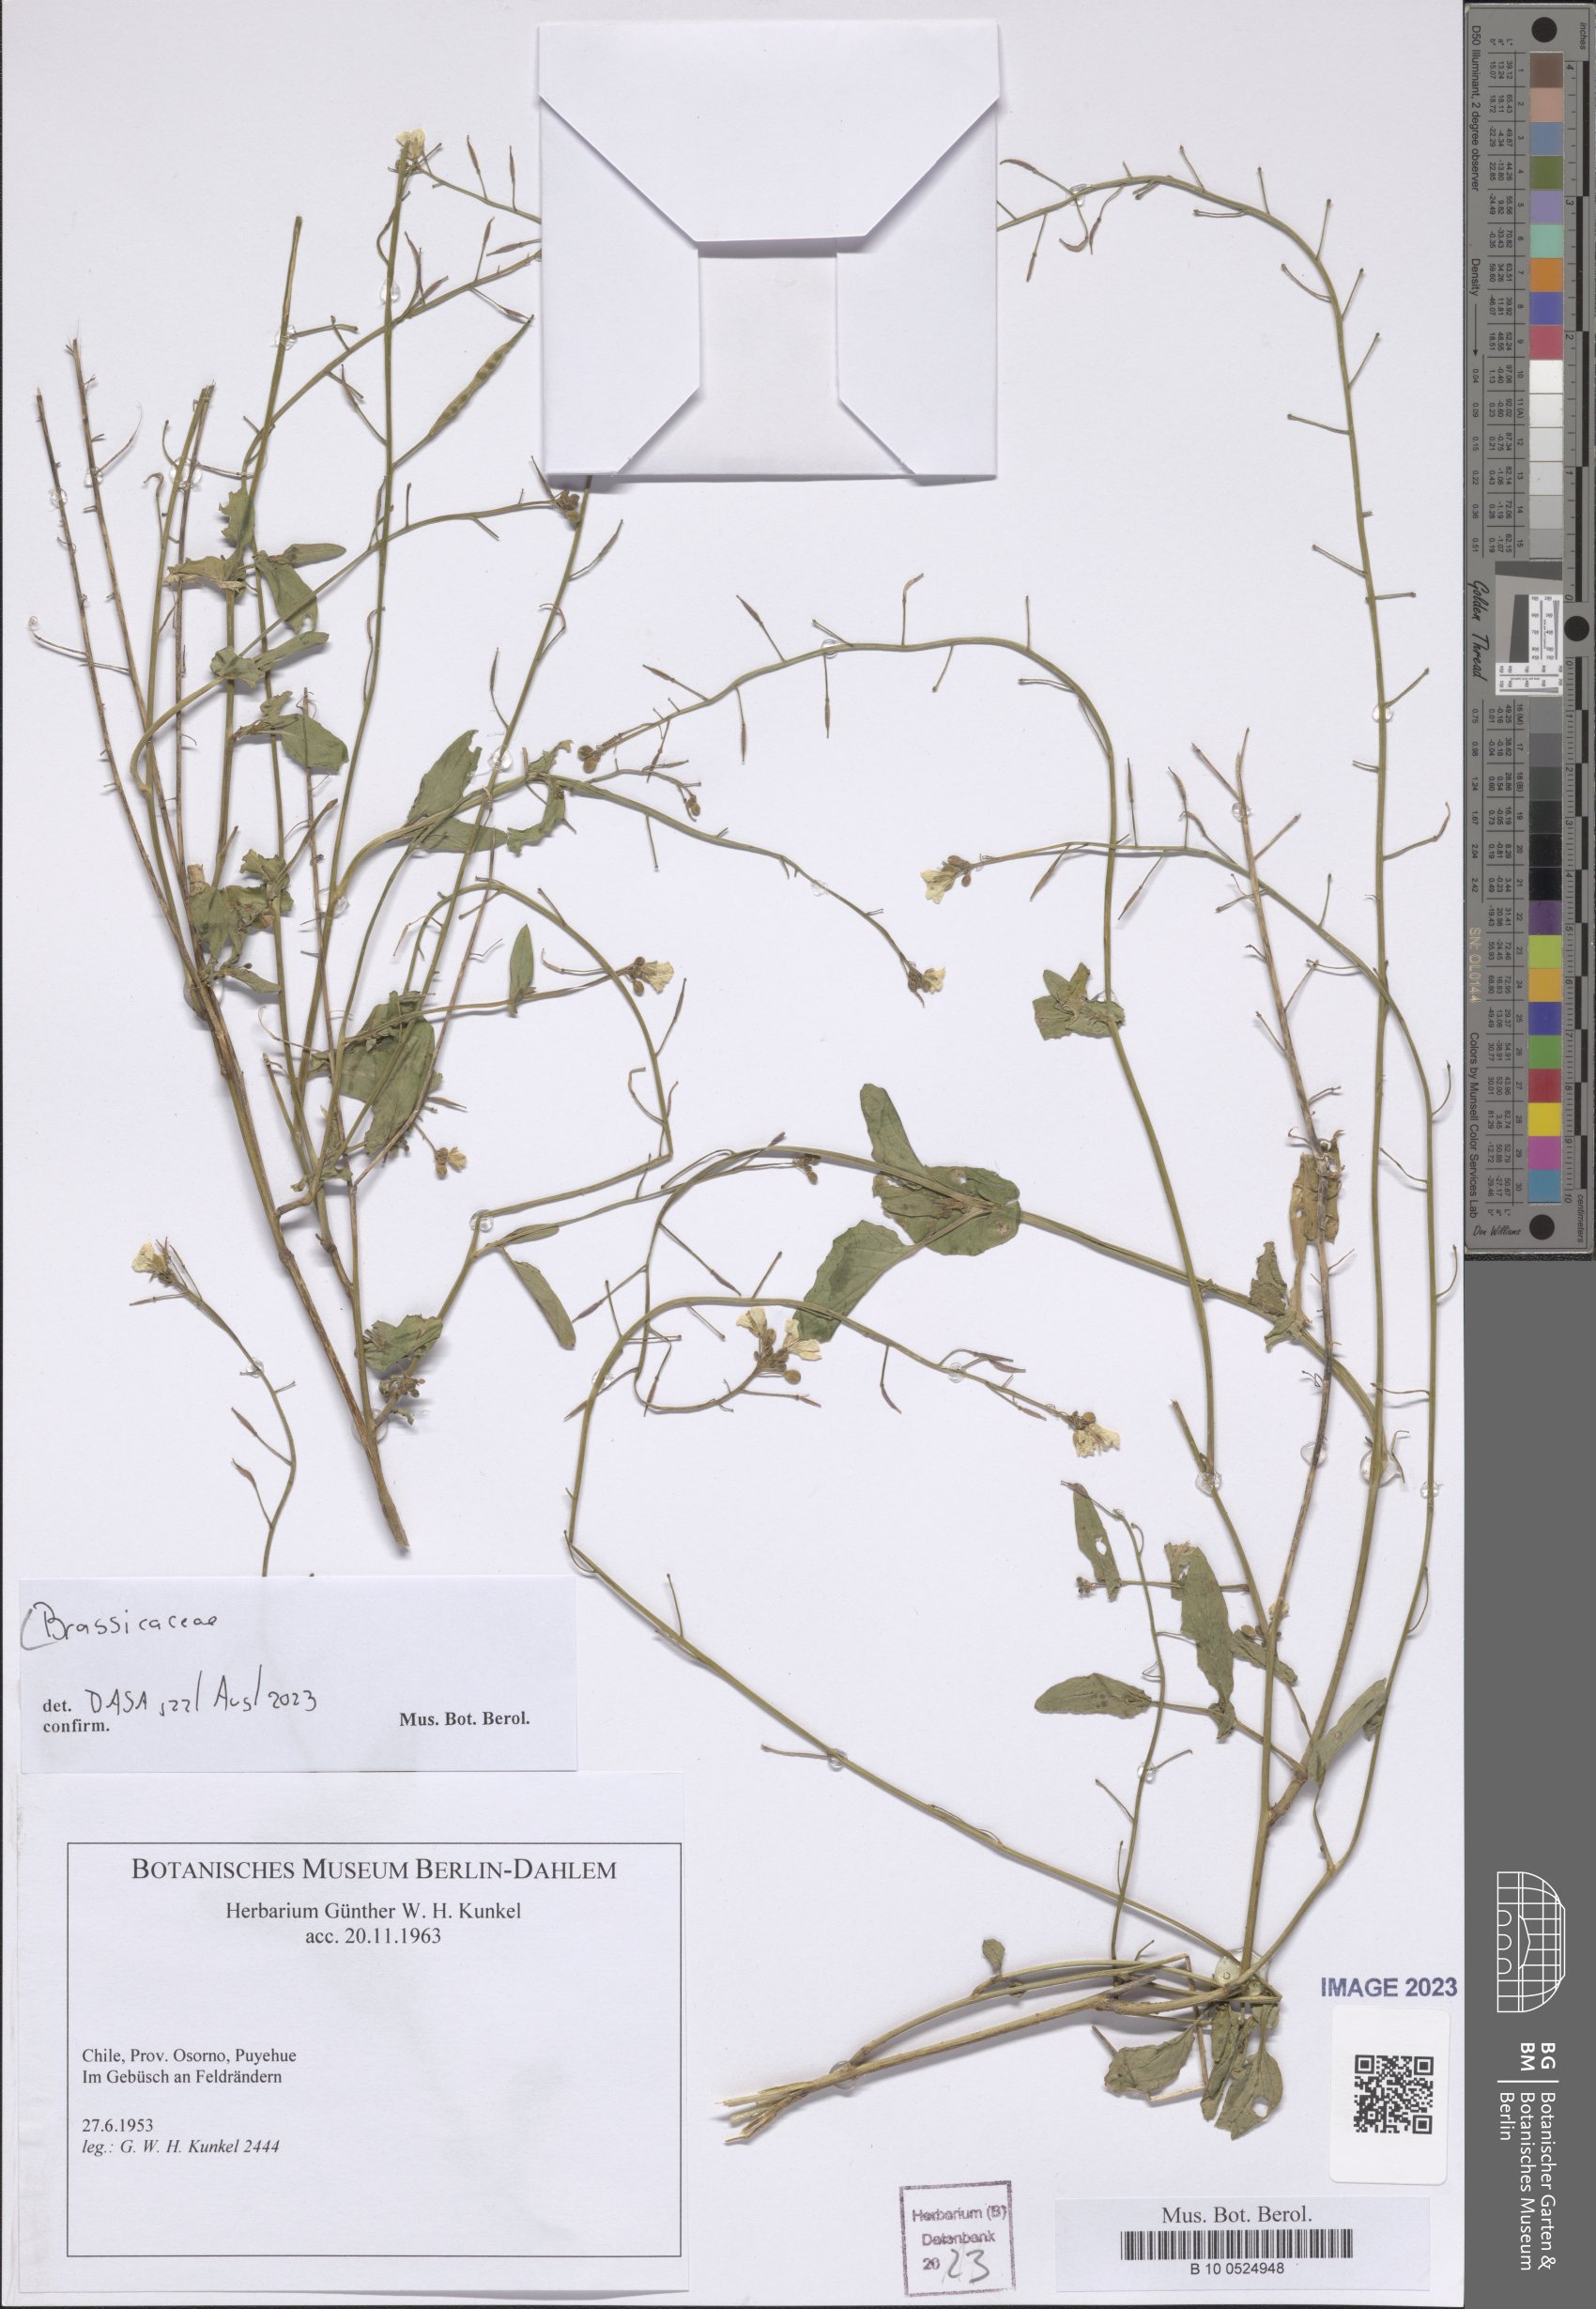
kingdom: Plantae
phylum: Tracheophyta
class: Magnoliopsida
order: Brassicales
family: Brassicaceae
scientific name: Brassicaceae
